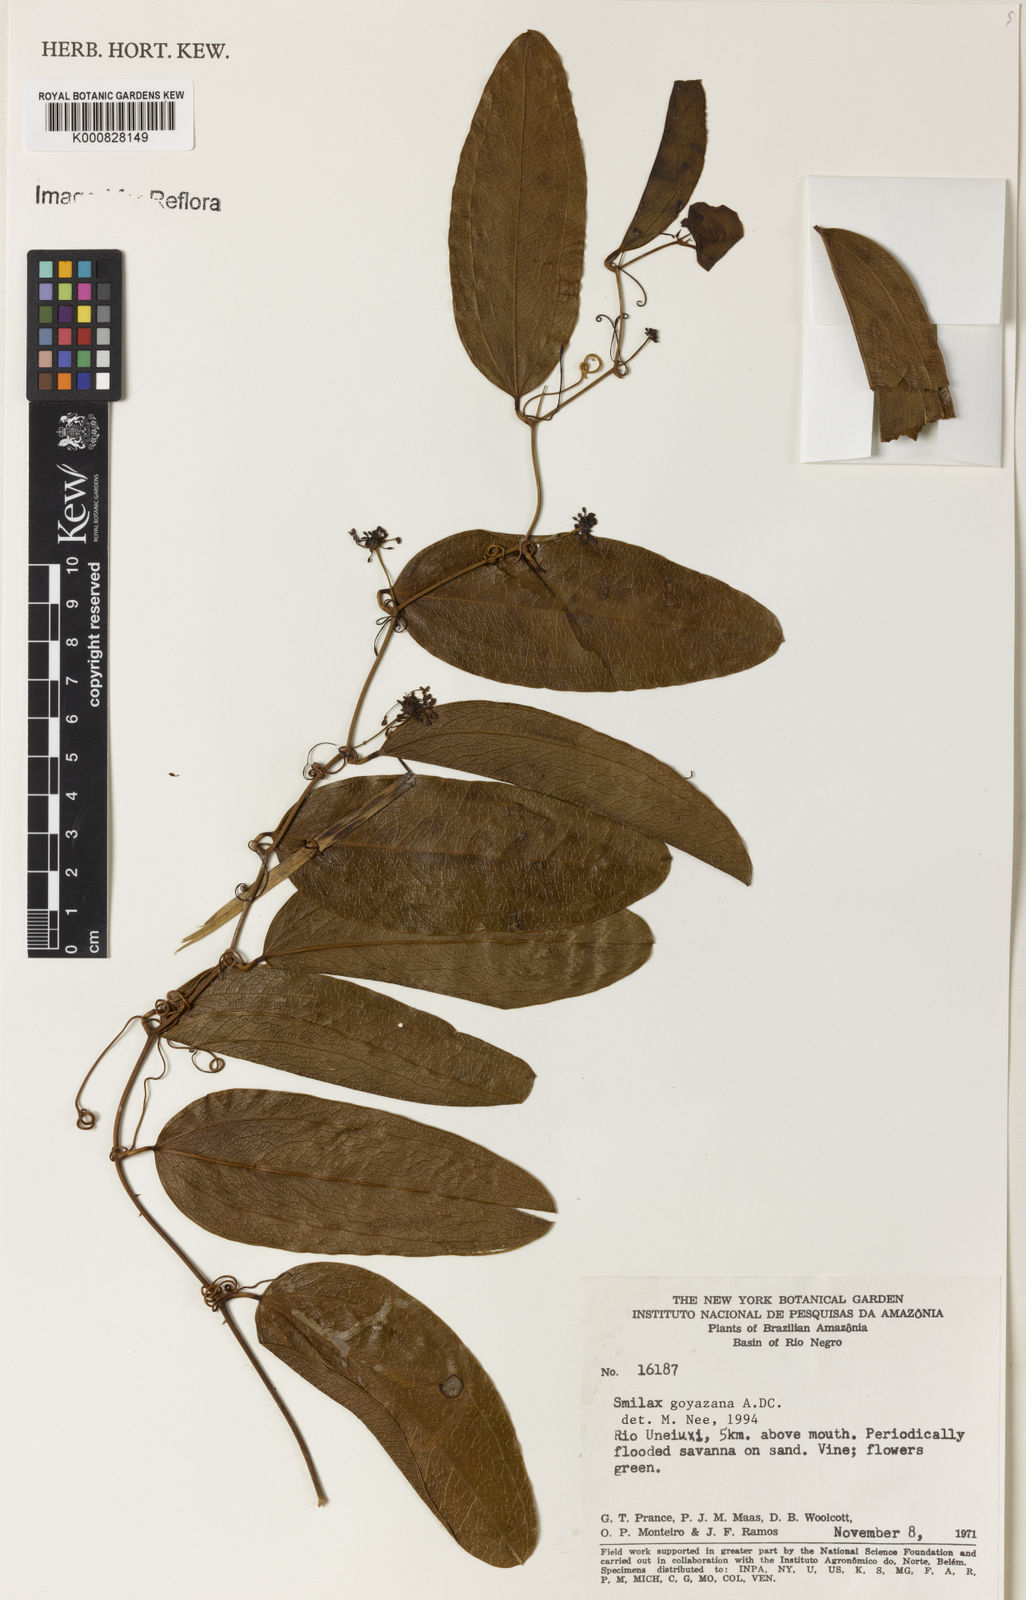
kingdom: Plantae
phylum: Tracheophyta
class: Liliopsida
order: Liliales
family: Smilacaceae
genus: Smilax
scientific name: Smilax goyazana
